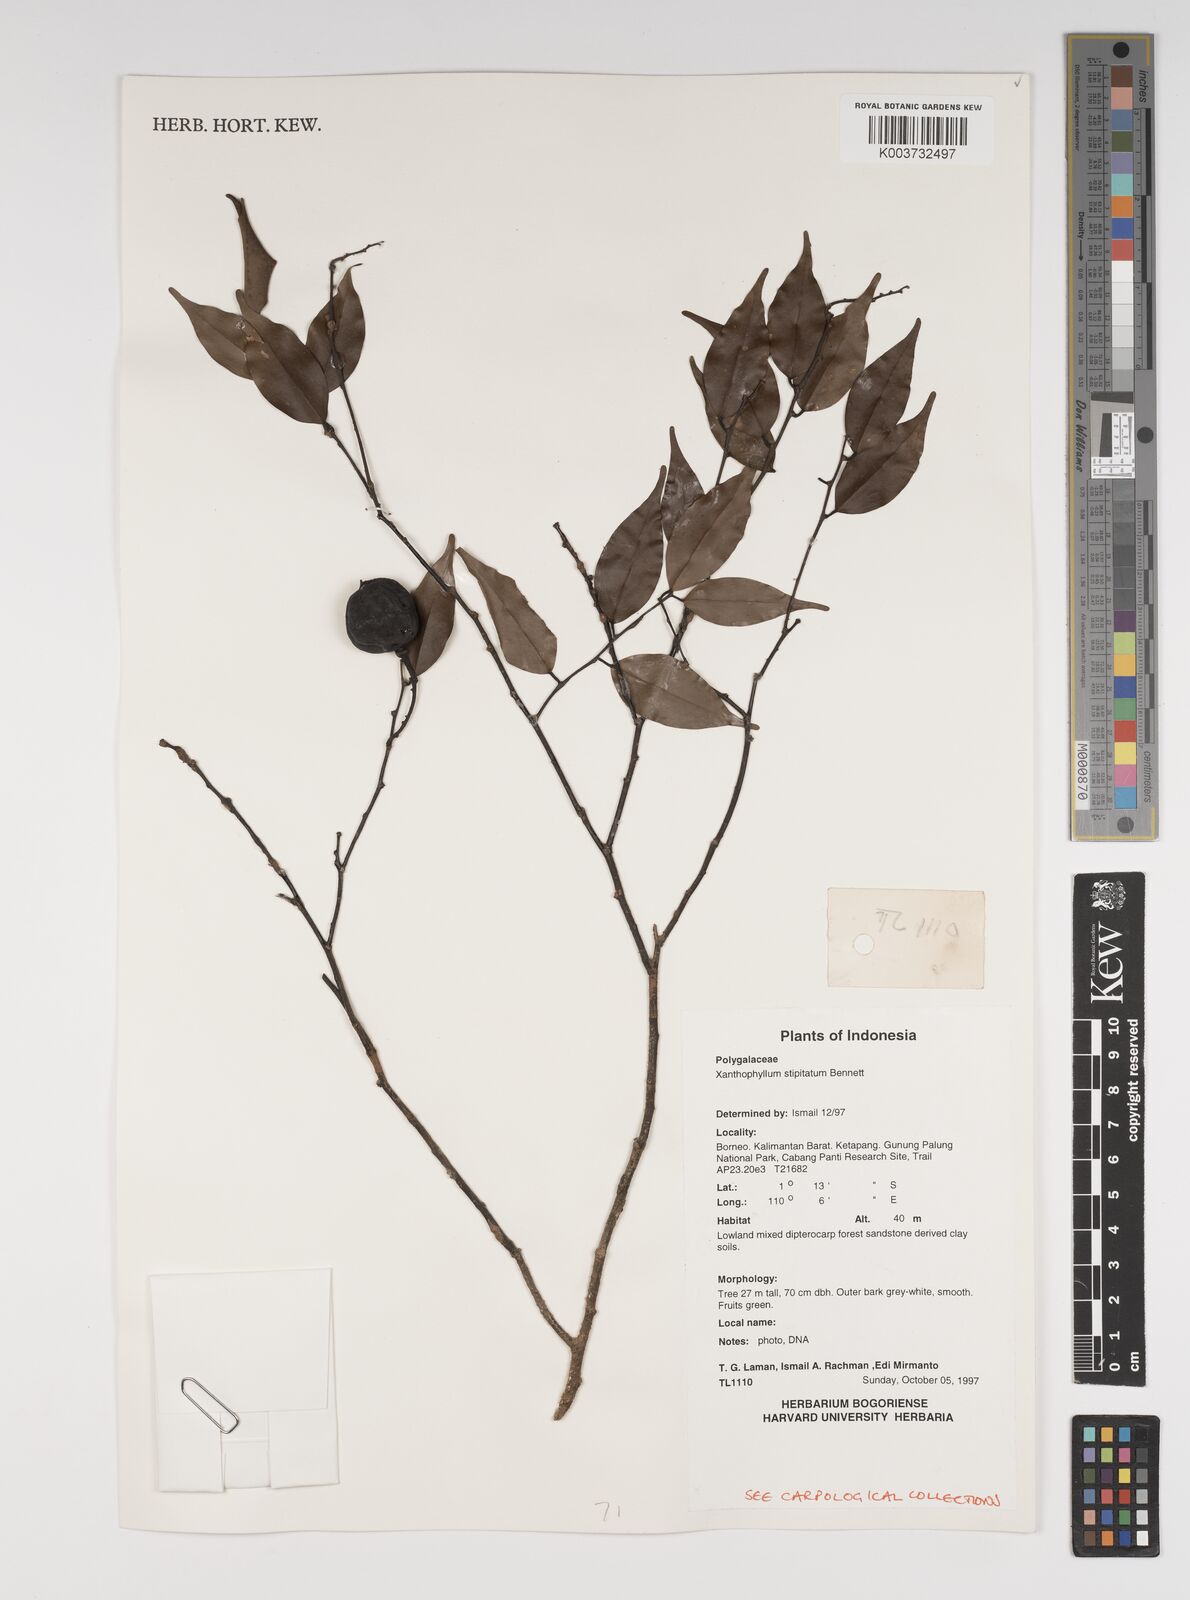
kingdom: Plantae
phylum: Tracheophyta
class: Magnoliopsida
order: Fabales
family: Polygalaceae
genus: Xanthophyllum
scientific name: Xanthophyllum stipitatum
